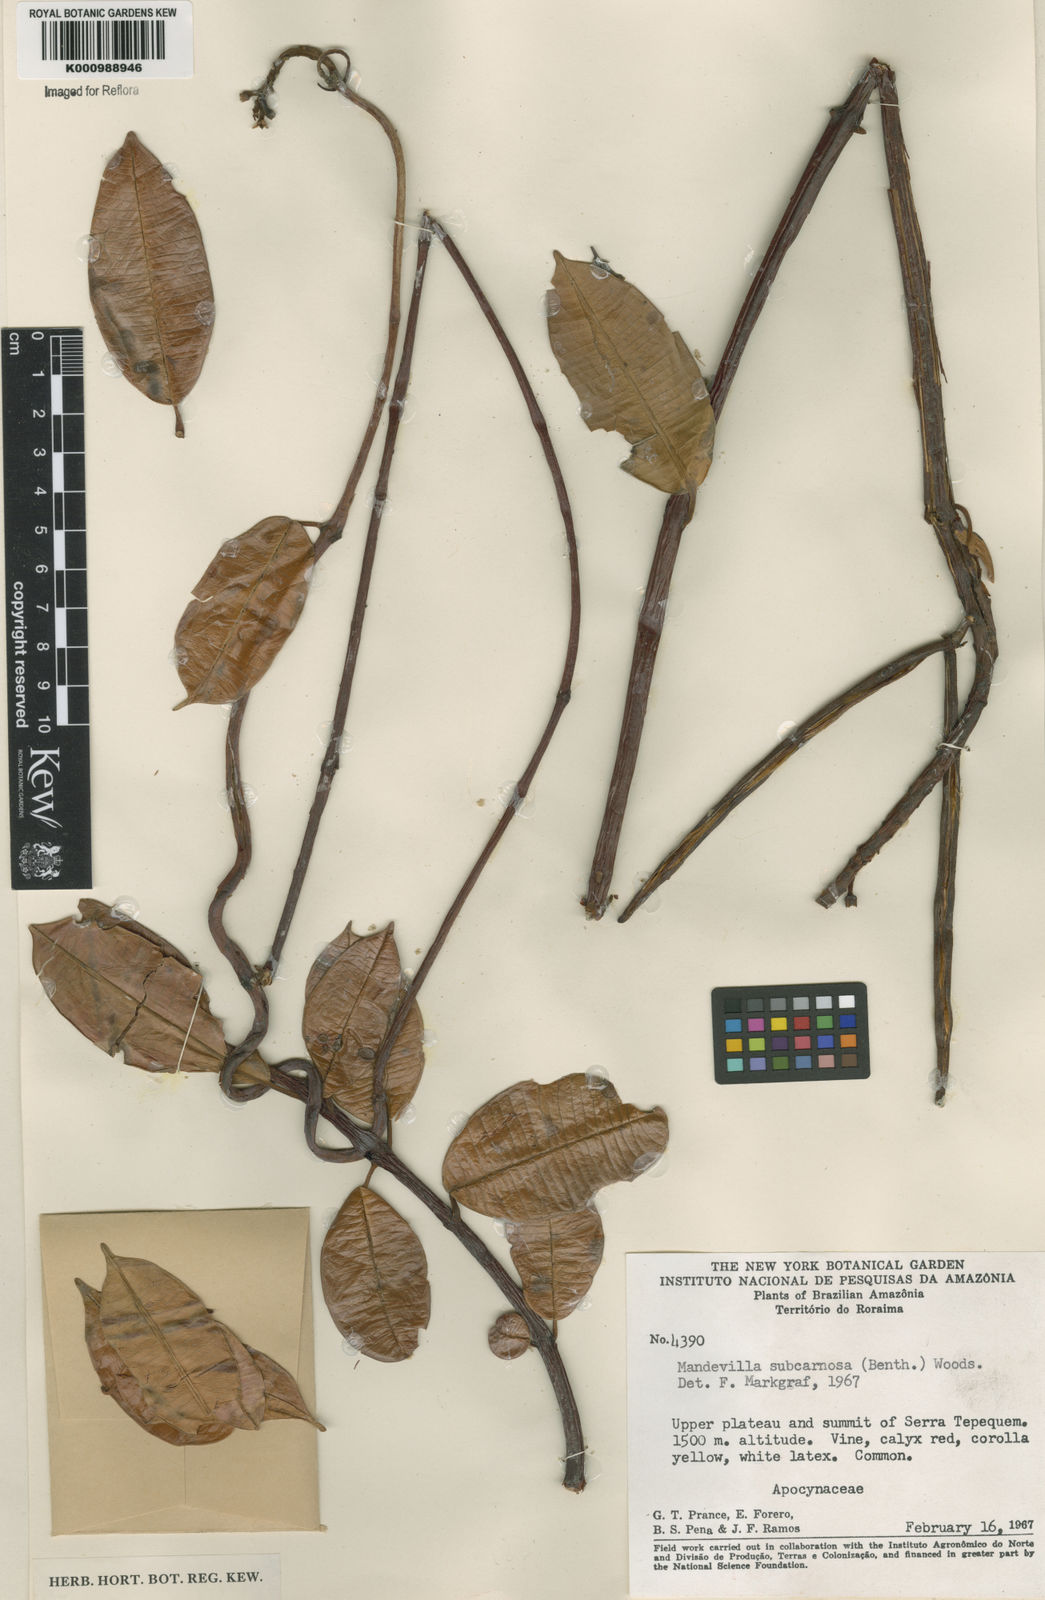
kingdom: Plantae
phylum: Tracheophyta
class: Magnoliopsida
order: Gentianales
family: Apocynaceae
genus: Mandevilla
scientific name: Mandevilla
